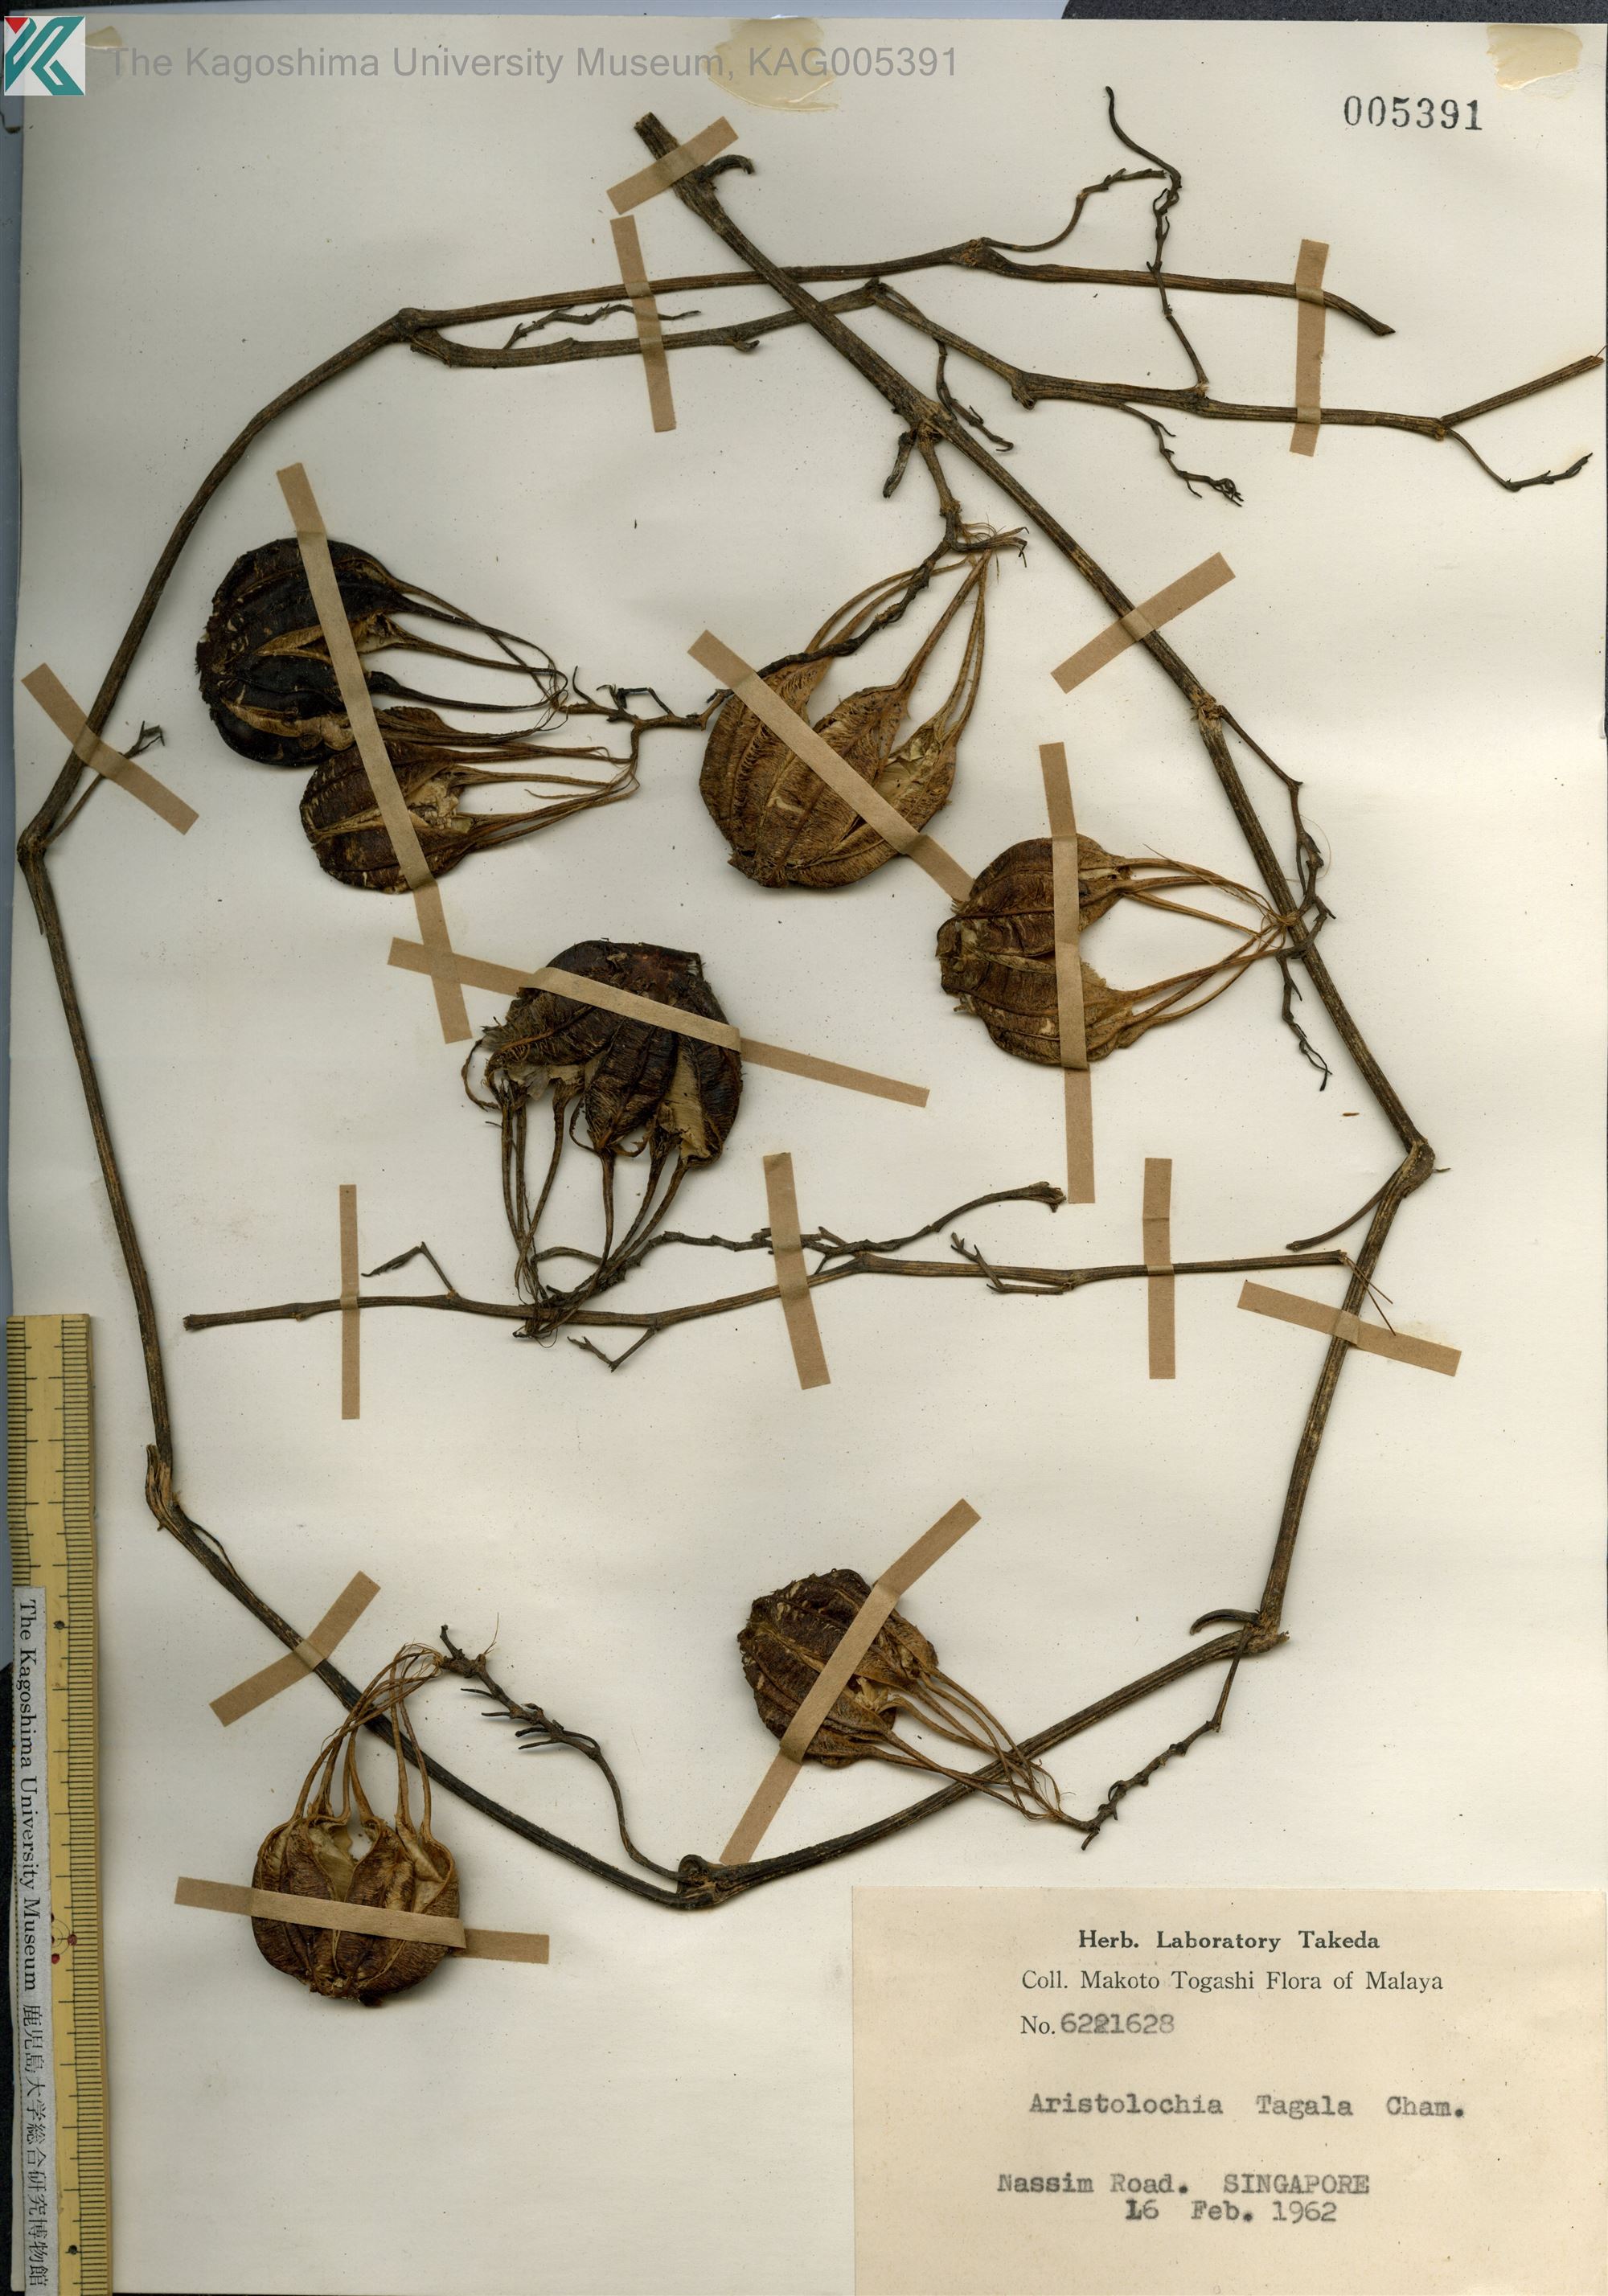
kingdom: Plantae
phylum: Tracheophyta
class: Magnoliopsida
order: Piperales
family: Aristolochiaceae
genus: Aristolochia
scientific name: Aristolochia acuminata
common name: Indian birthwort
